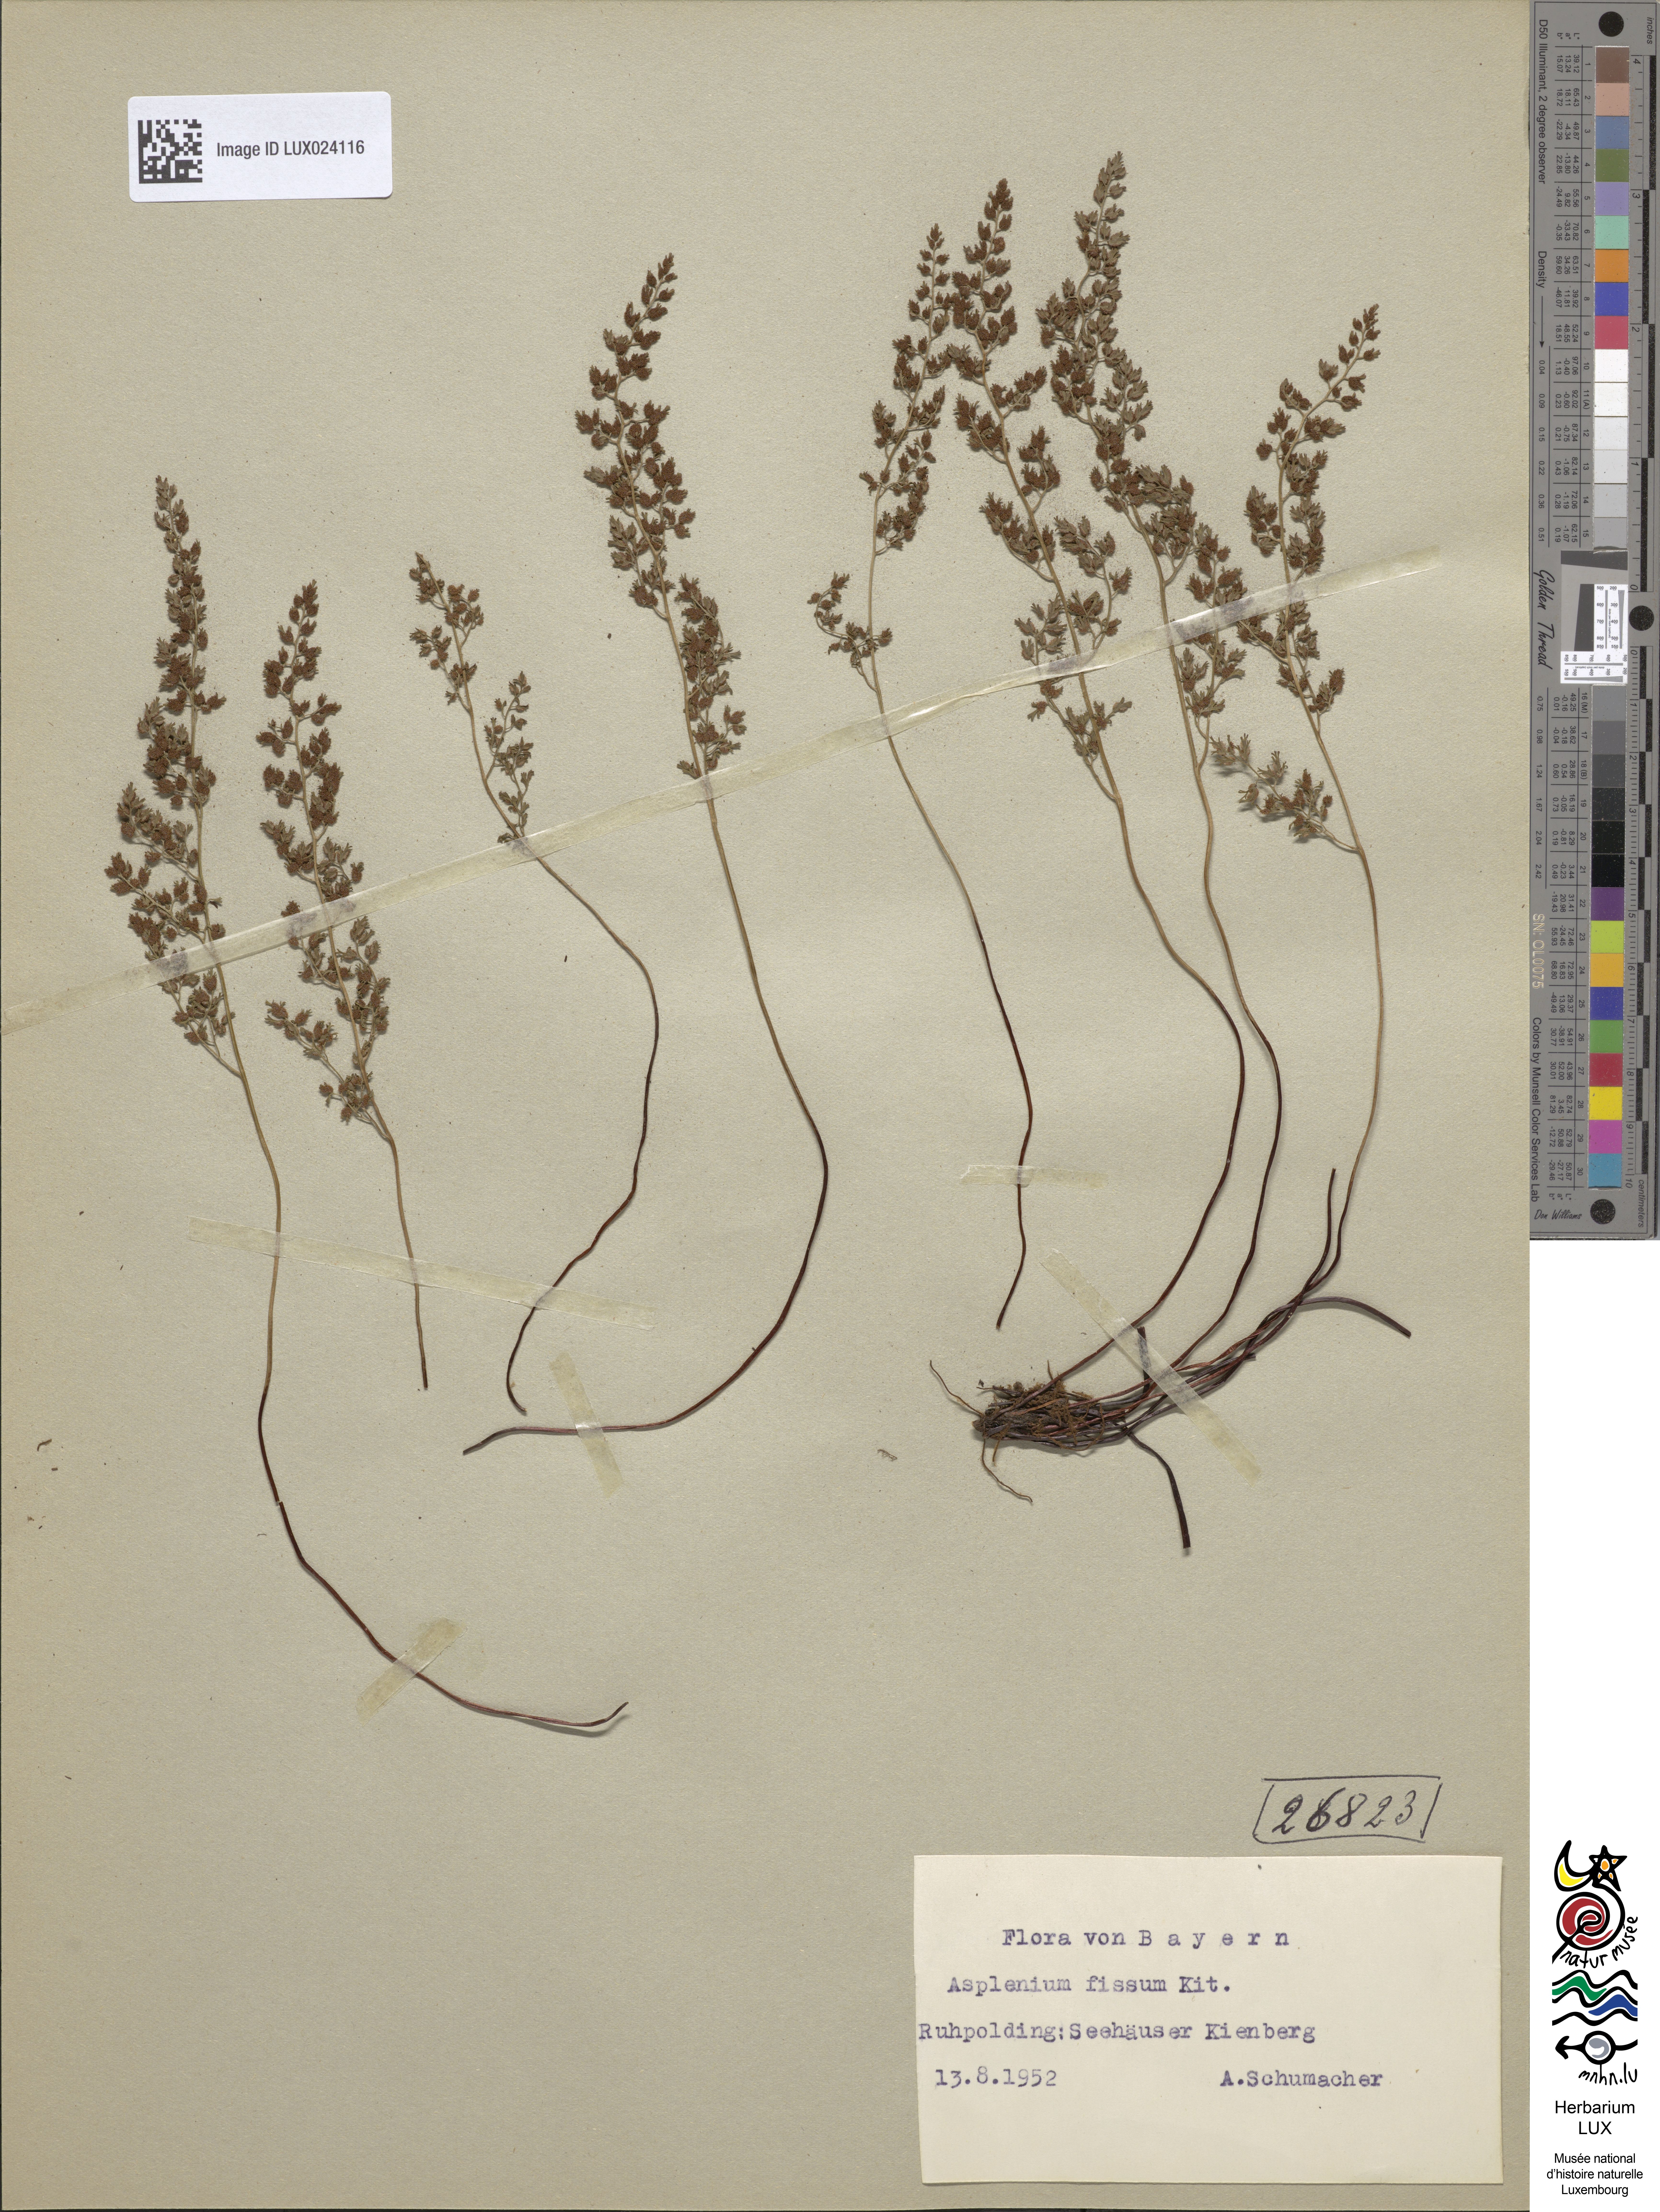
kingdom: Plantae
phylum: Tracheophyta
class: Polypodiopsida
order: Polypodiales
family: Aspleniaceae
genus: Asplenium
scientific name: Asplenium fissum
